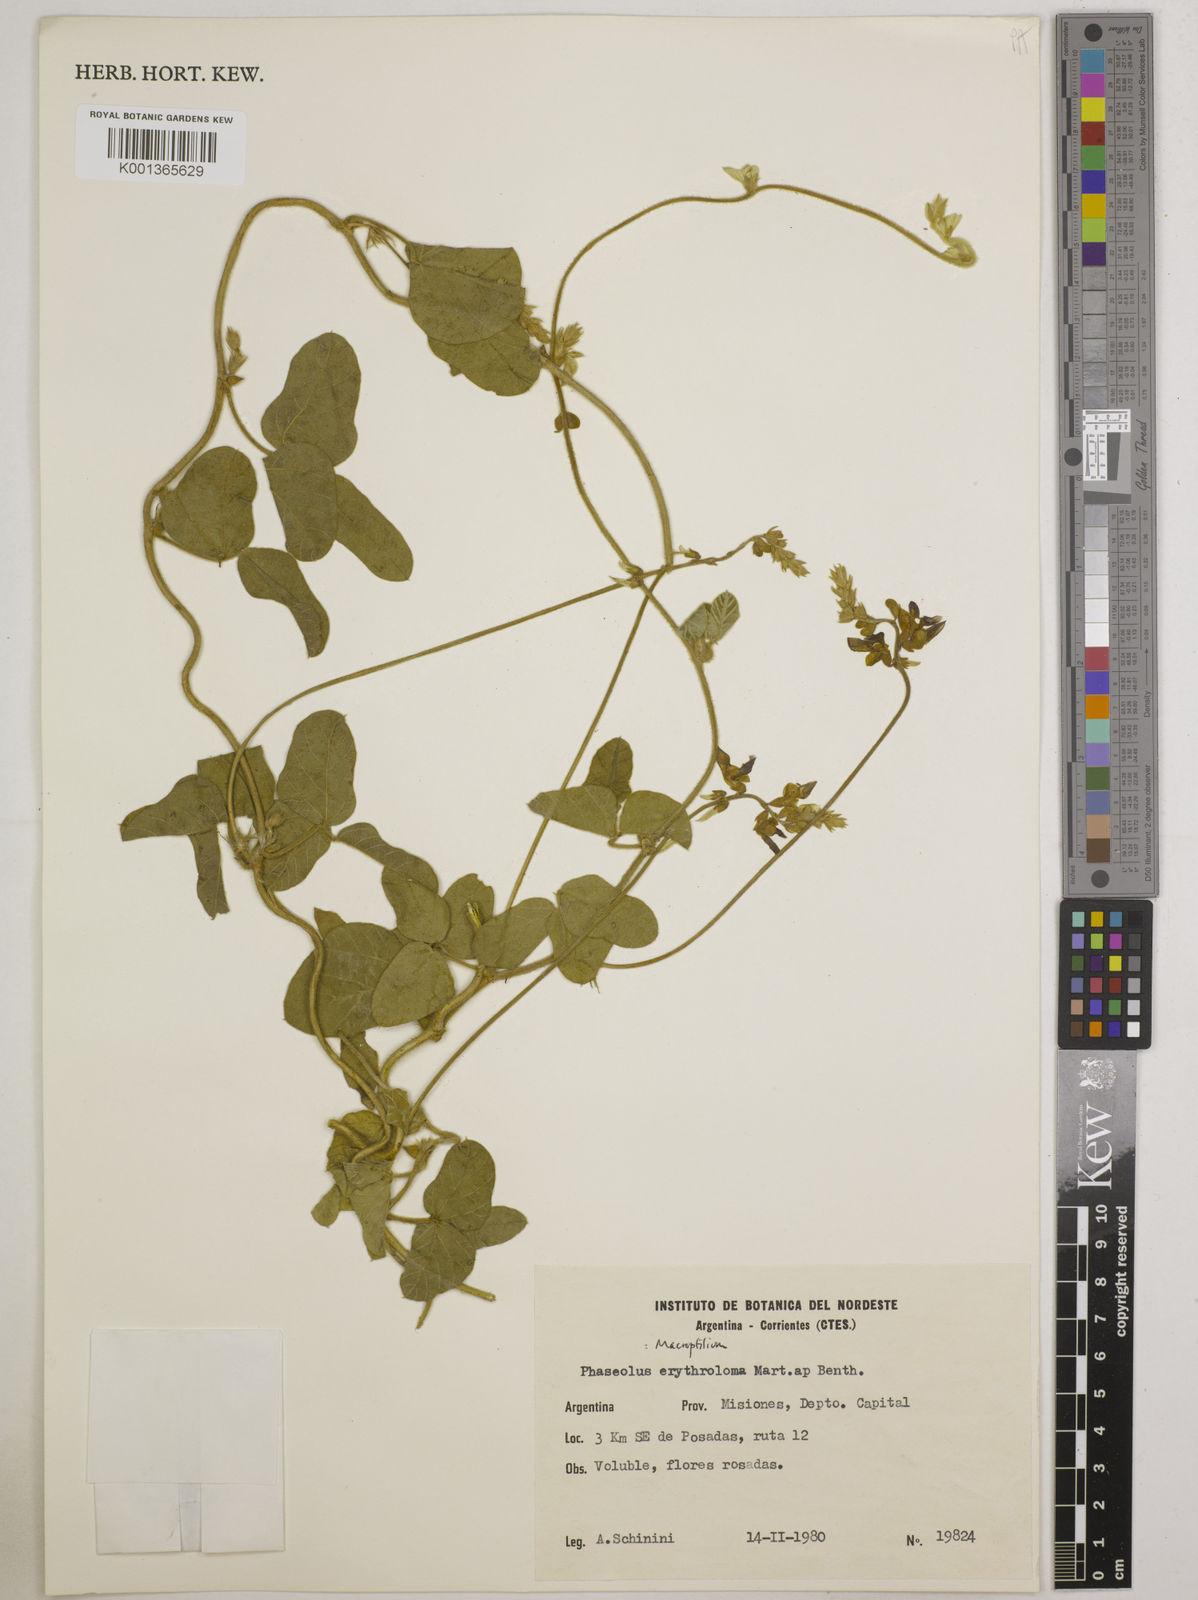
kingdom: Plantae
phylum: Tracheophyta
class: Magnoliopsida
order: Fabales
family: Fabaceae
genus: Macroptilium
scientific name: Macroptilium erythroloma
